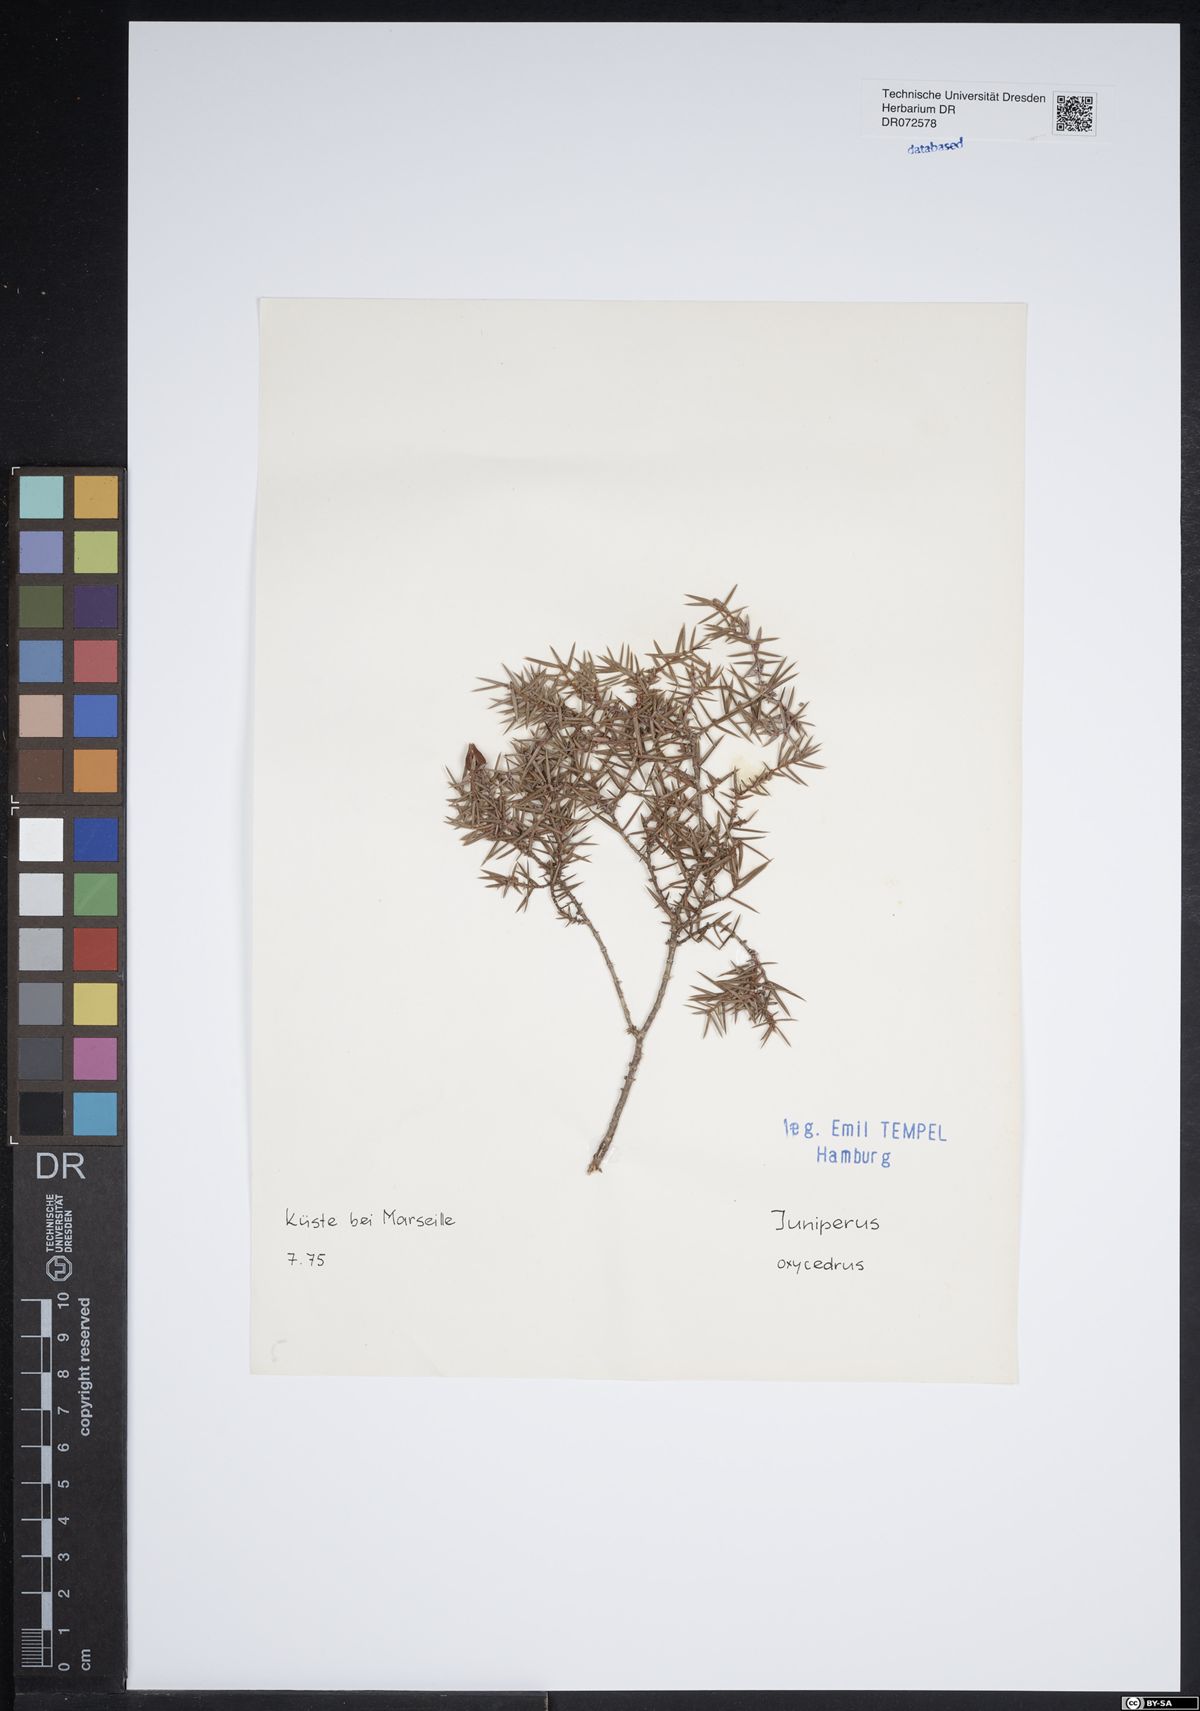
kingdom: Plantae
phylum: Tracheophyta
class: Pinopsida
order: Pinales
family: Cupressaceae
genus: Juniperus
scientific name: Juniperus oxycedrus
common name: Prickly juniper
